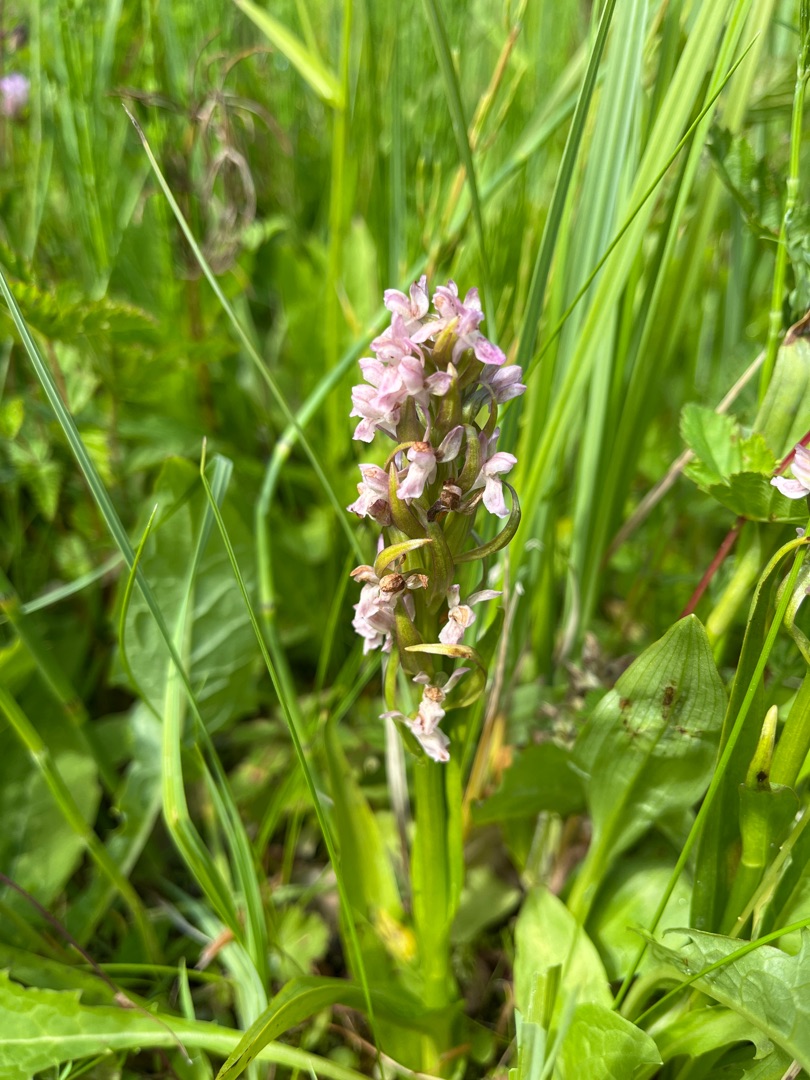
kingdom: Plantae
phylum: Tracheophyta
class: Liliopsida
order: Asparagales
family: Orchidaceae
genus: Dactylorhiza
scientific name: Dactylorhiza incarnata
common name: Kødfarvet gøgeurt
